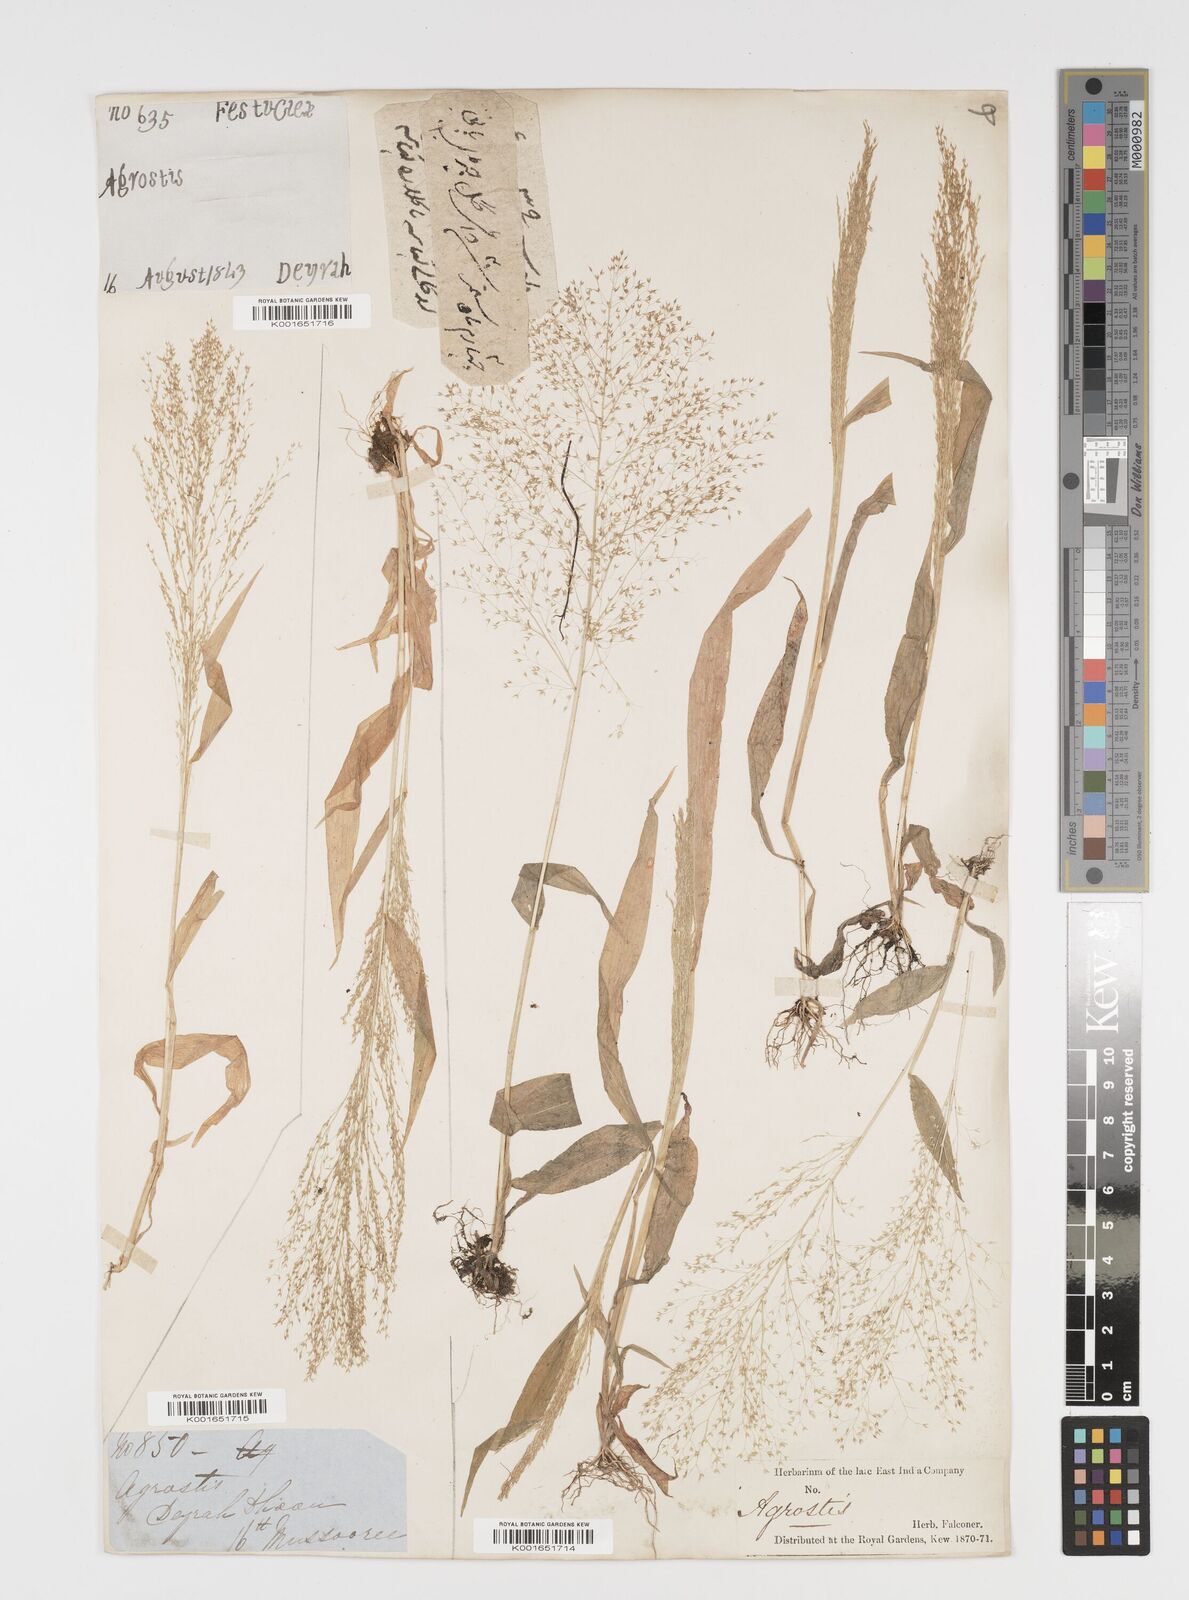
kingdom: Plantae
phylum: Tracheophyta
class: Liliopsida
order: Poales
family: Poaceae
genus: Arundinella
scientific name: Arundinella pumila
